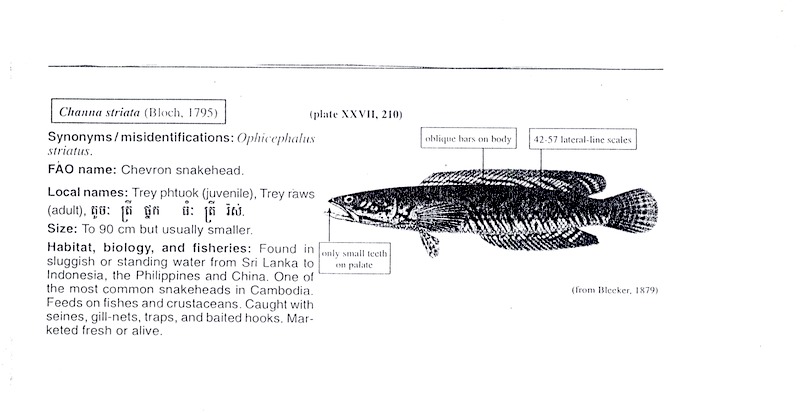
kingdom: Animalia
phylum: Chordata
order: Perciformes
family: Channidae
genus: Channa
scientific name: Channa striata
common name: Striped snakehead
